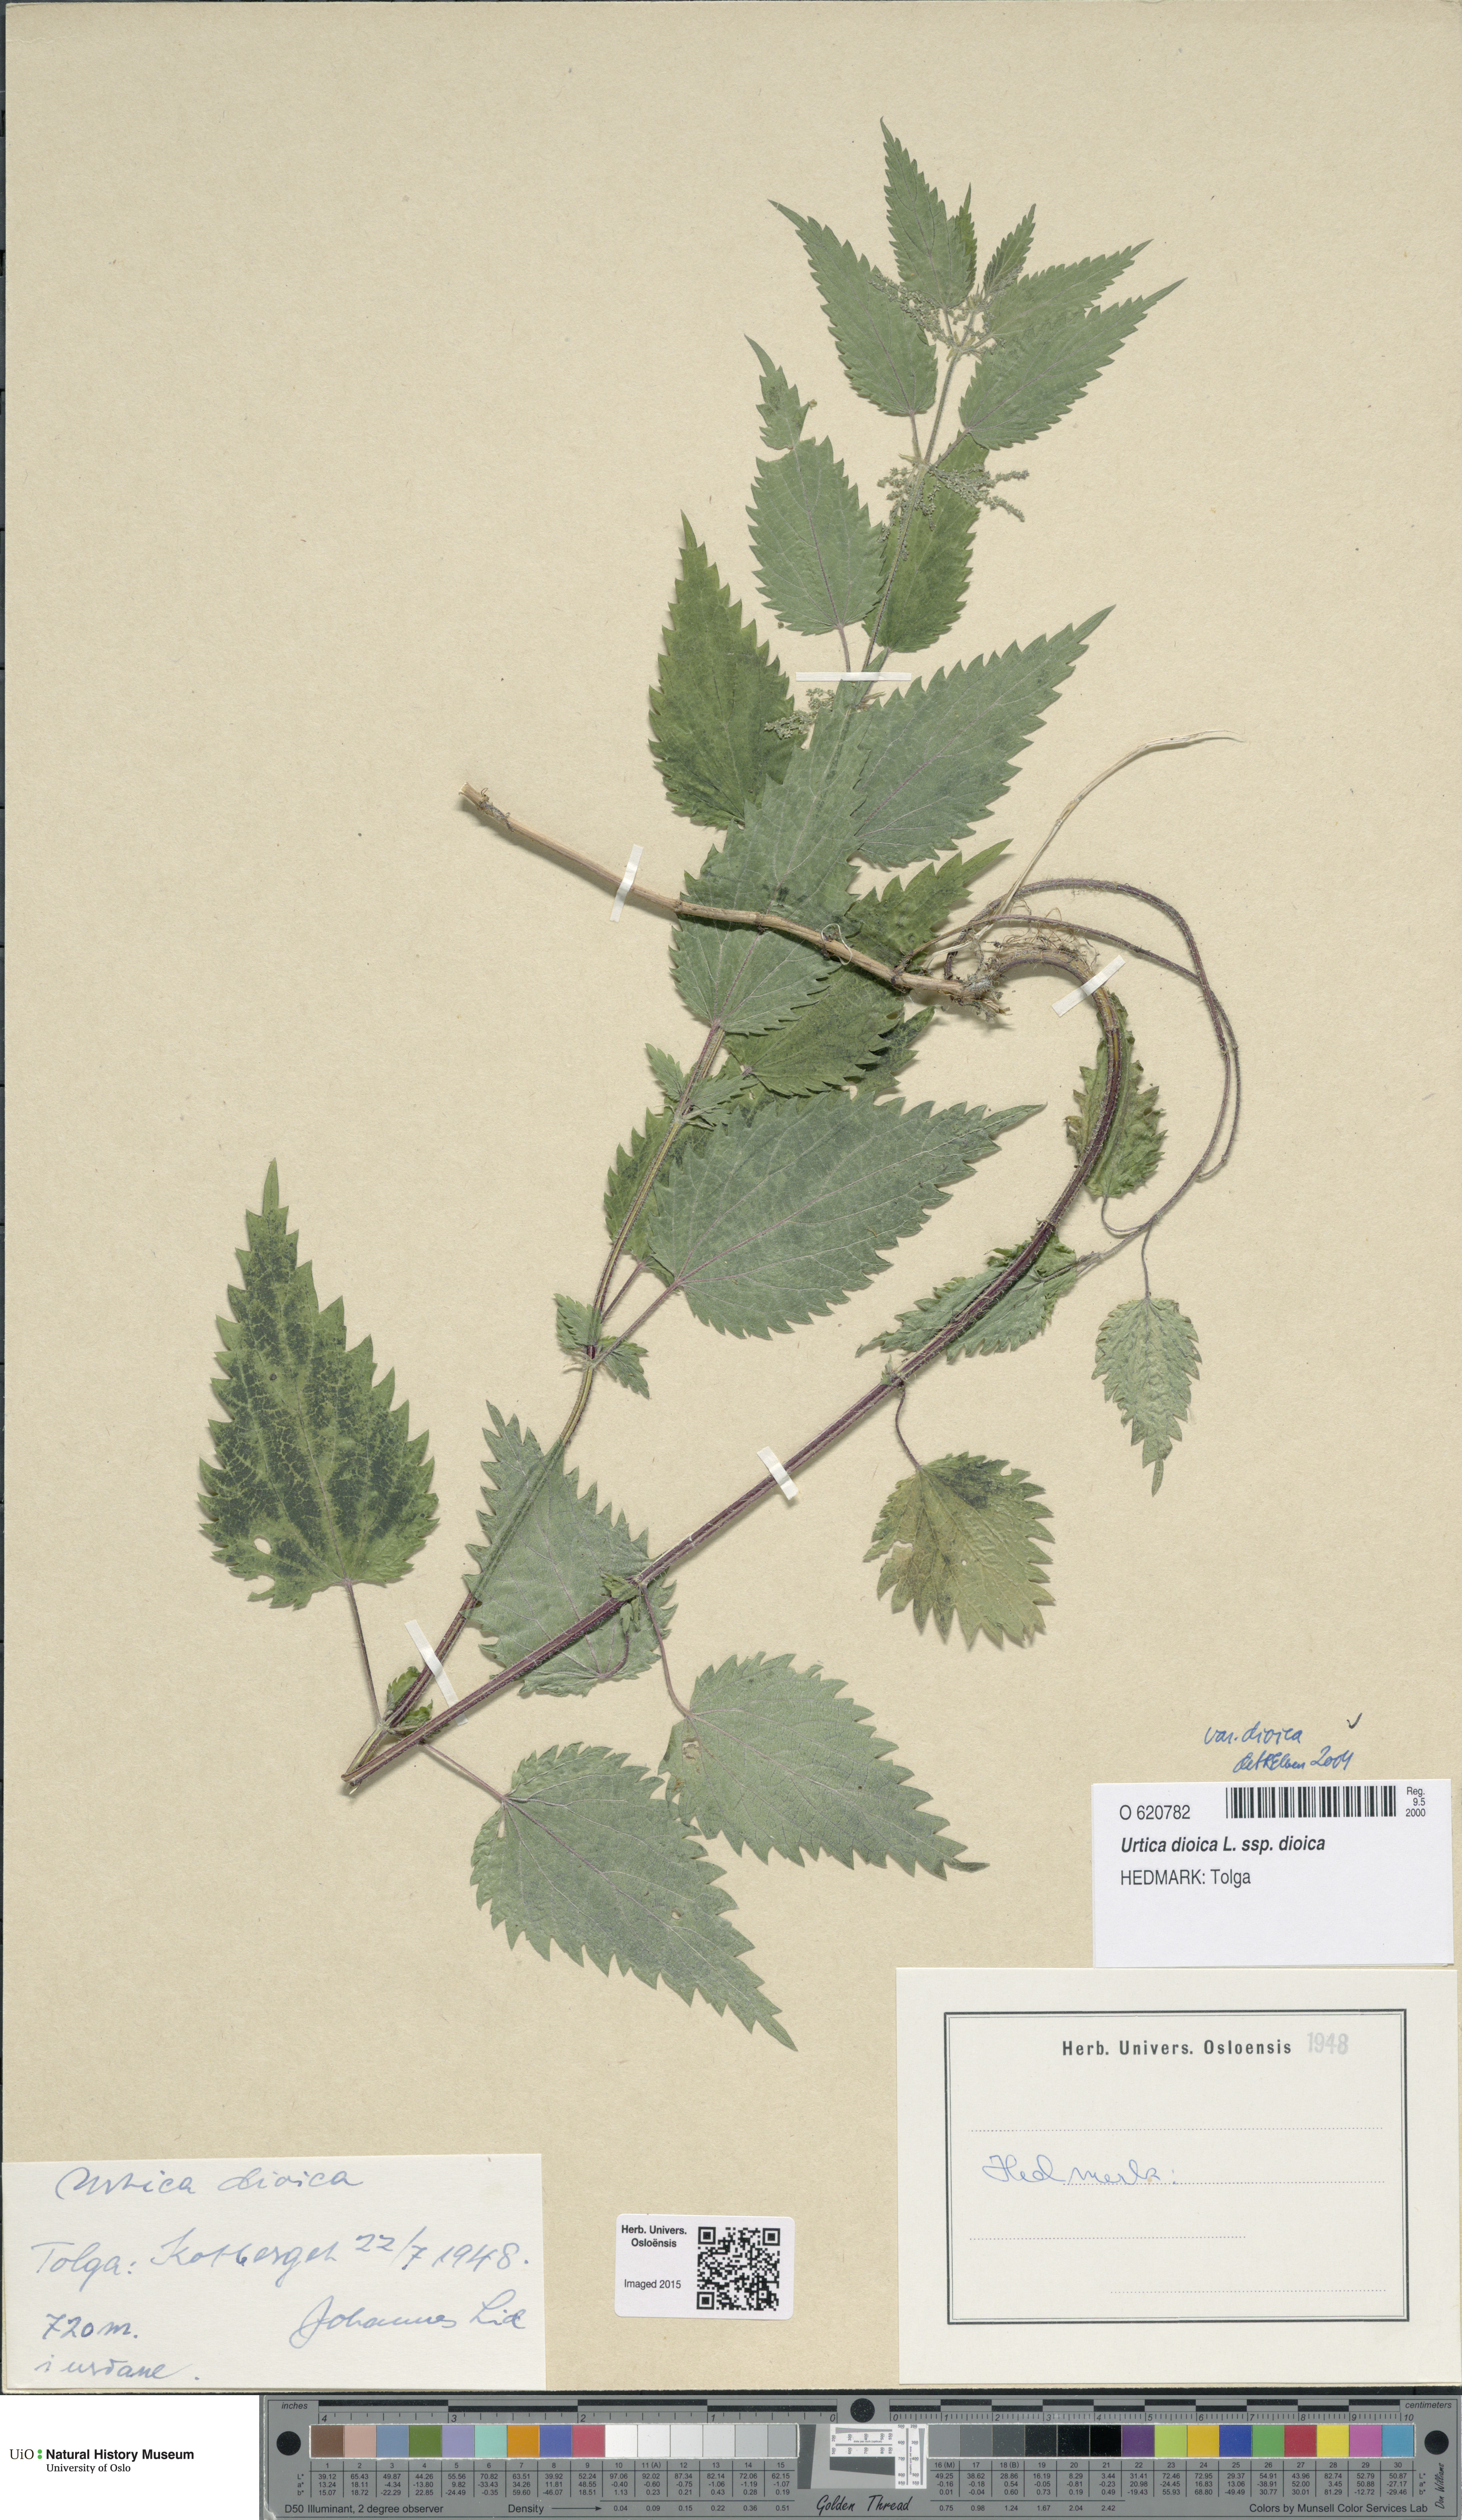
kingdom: Plantae
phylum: Tracheophyta
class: Magnoliopsida
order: Rosales
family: Urticaceae
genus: Urtica
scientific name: Urtica dioica
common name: Common nettle
